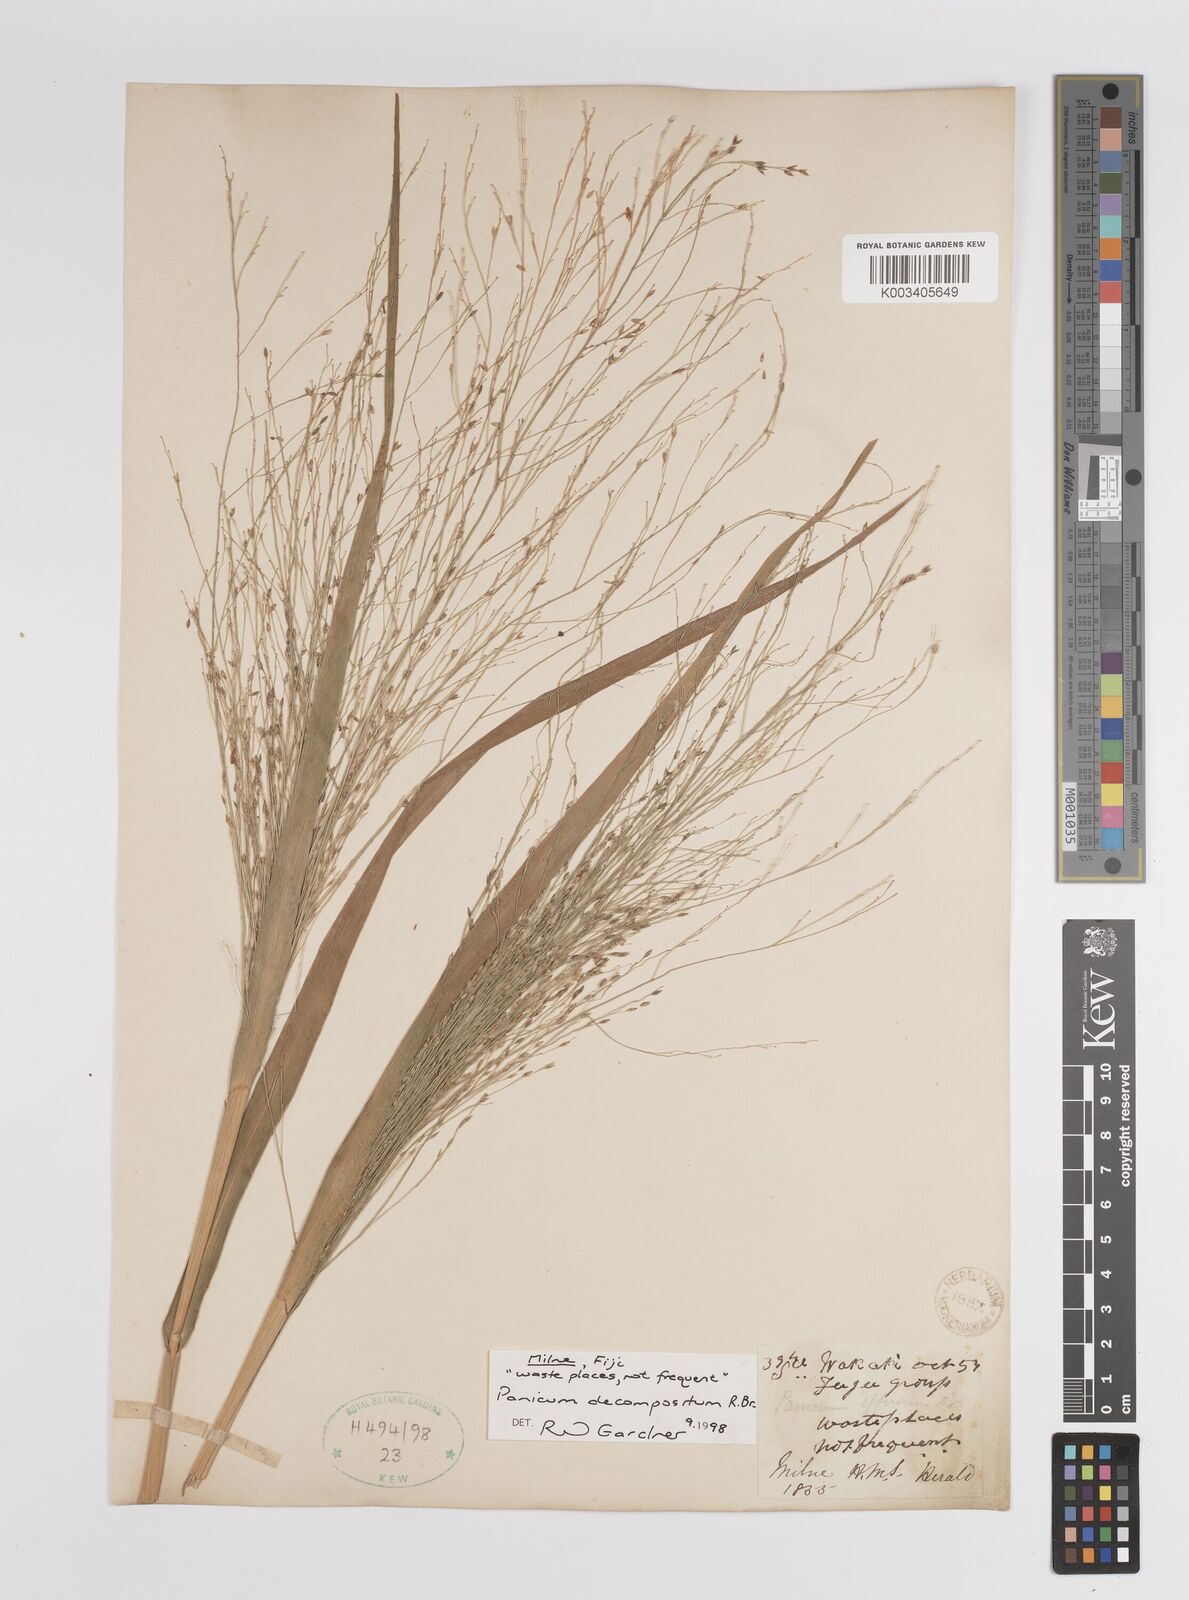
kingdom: Plantae
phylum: Tracheophyta
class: Liliopsida
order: Poales
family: Poaceae
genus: Panicum
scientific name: Panicum decompositum
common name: Australian millet
